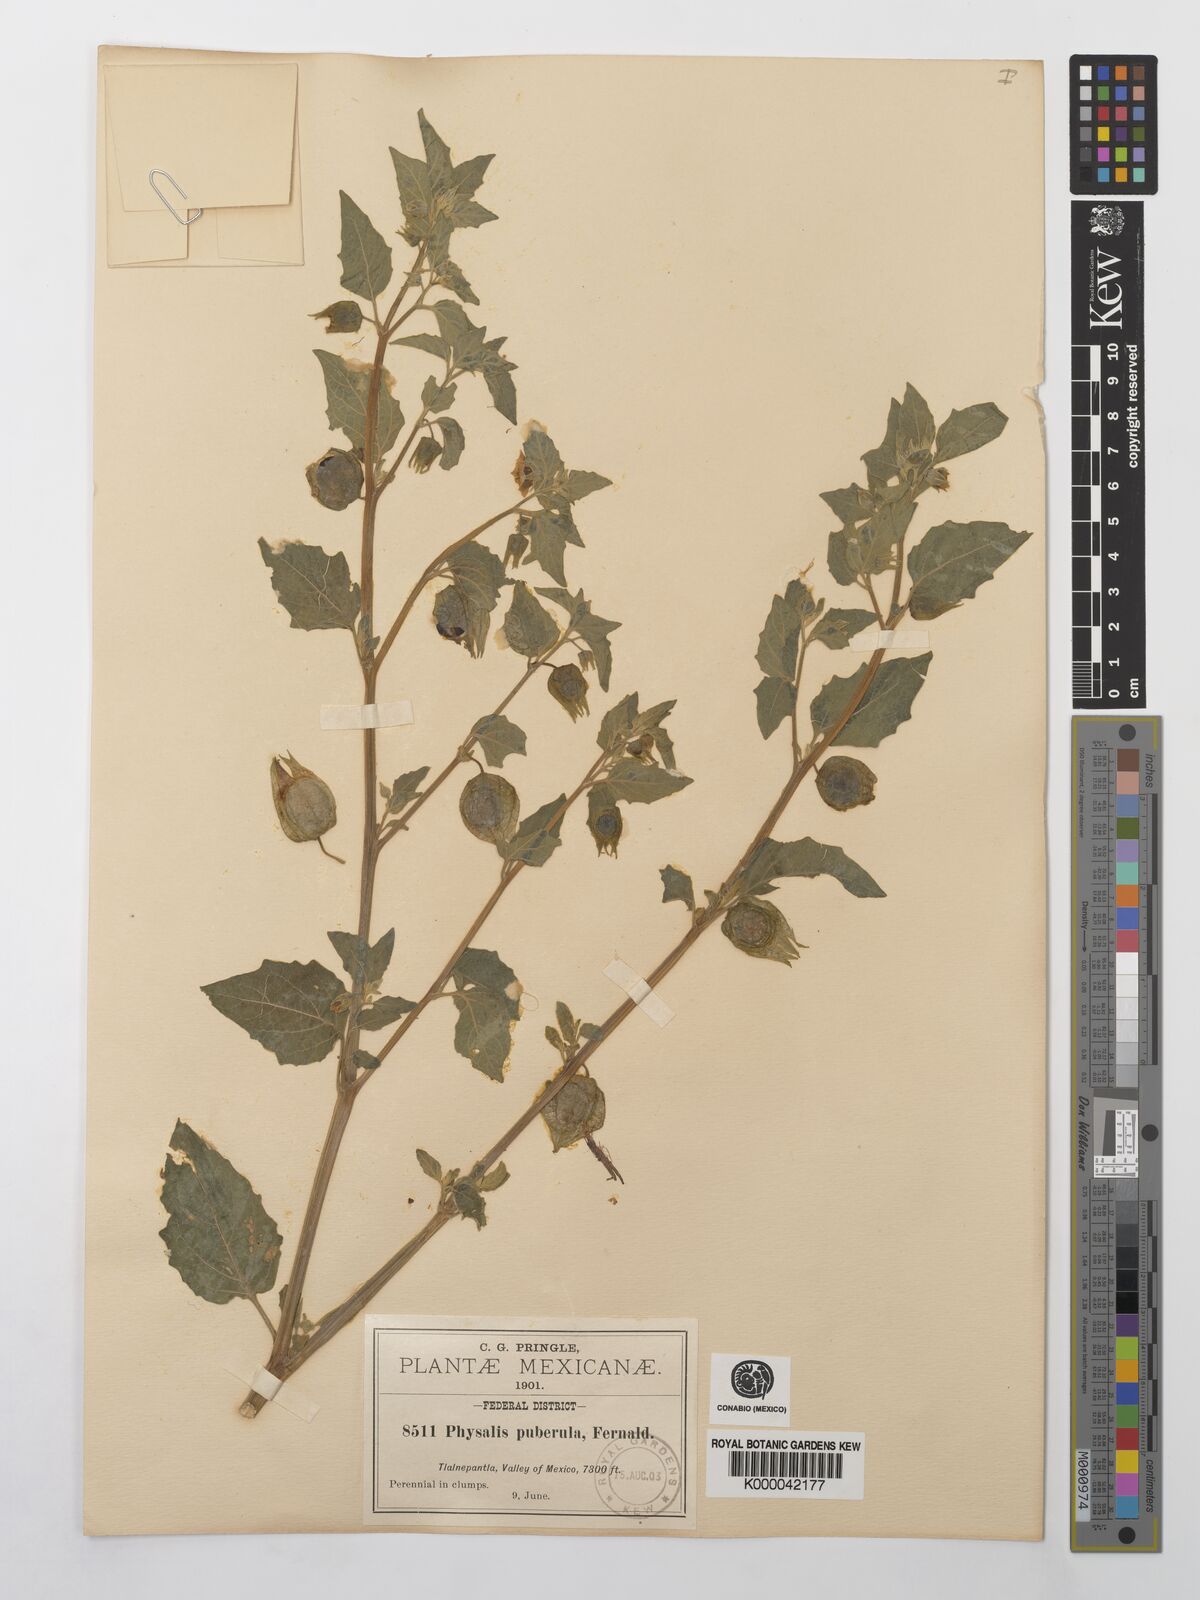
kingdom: Plantae
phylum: Tracheophyta
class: Magnoliopsida
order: Solanales
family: Solanaceae
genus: Physalis
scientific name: Physalis orizabae
